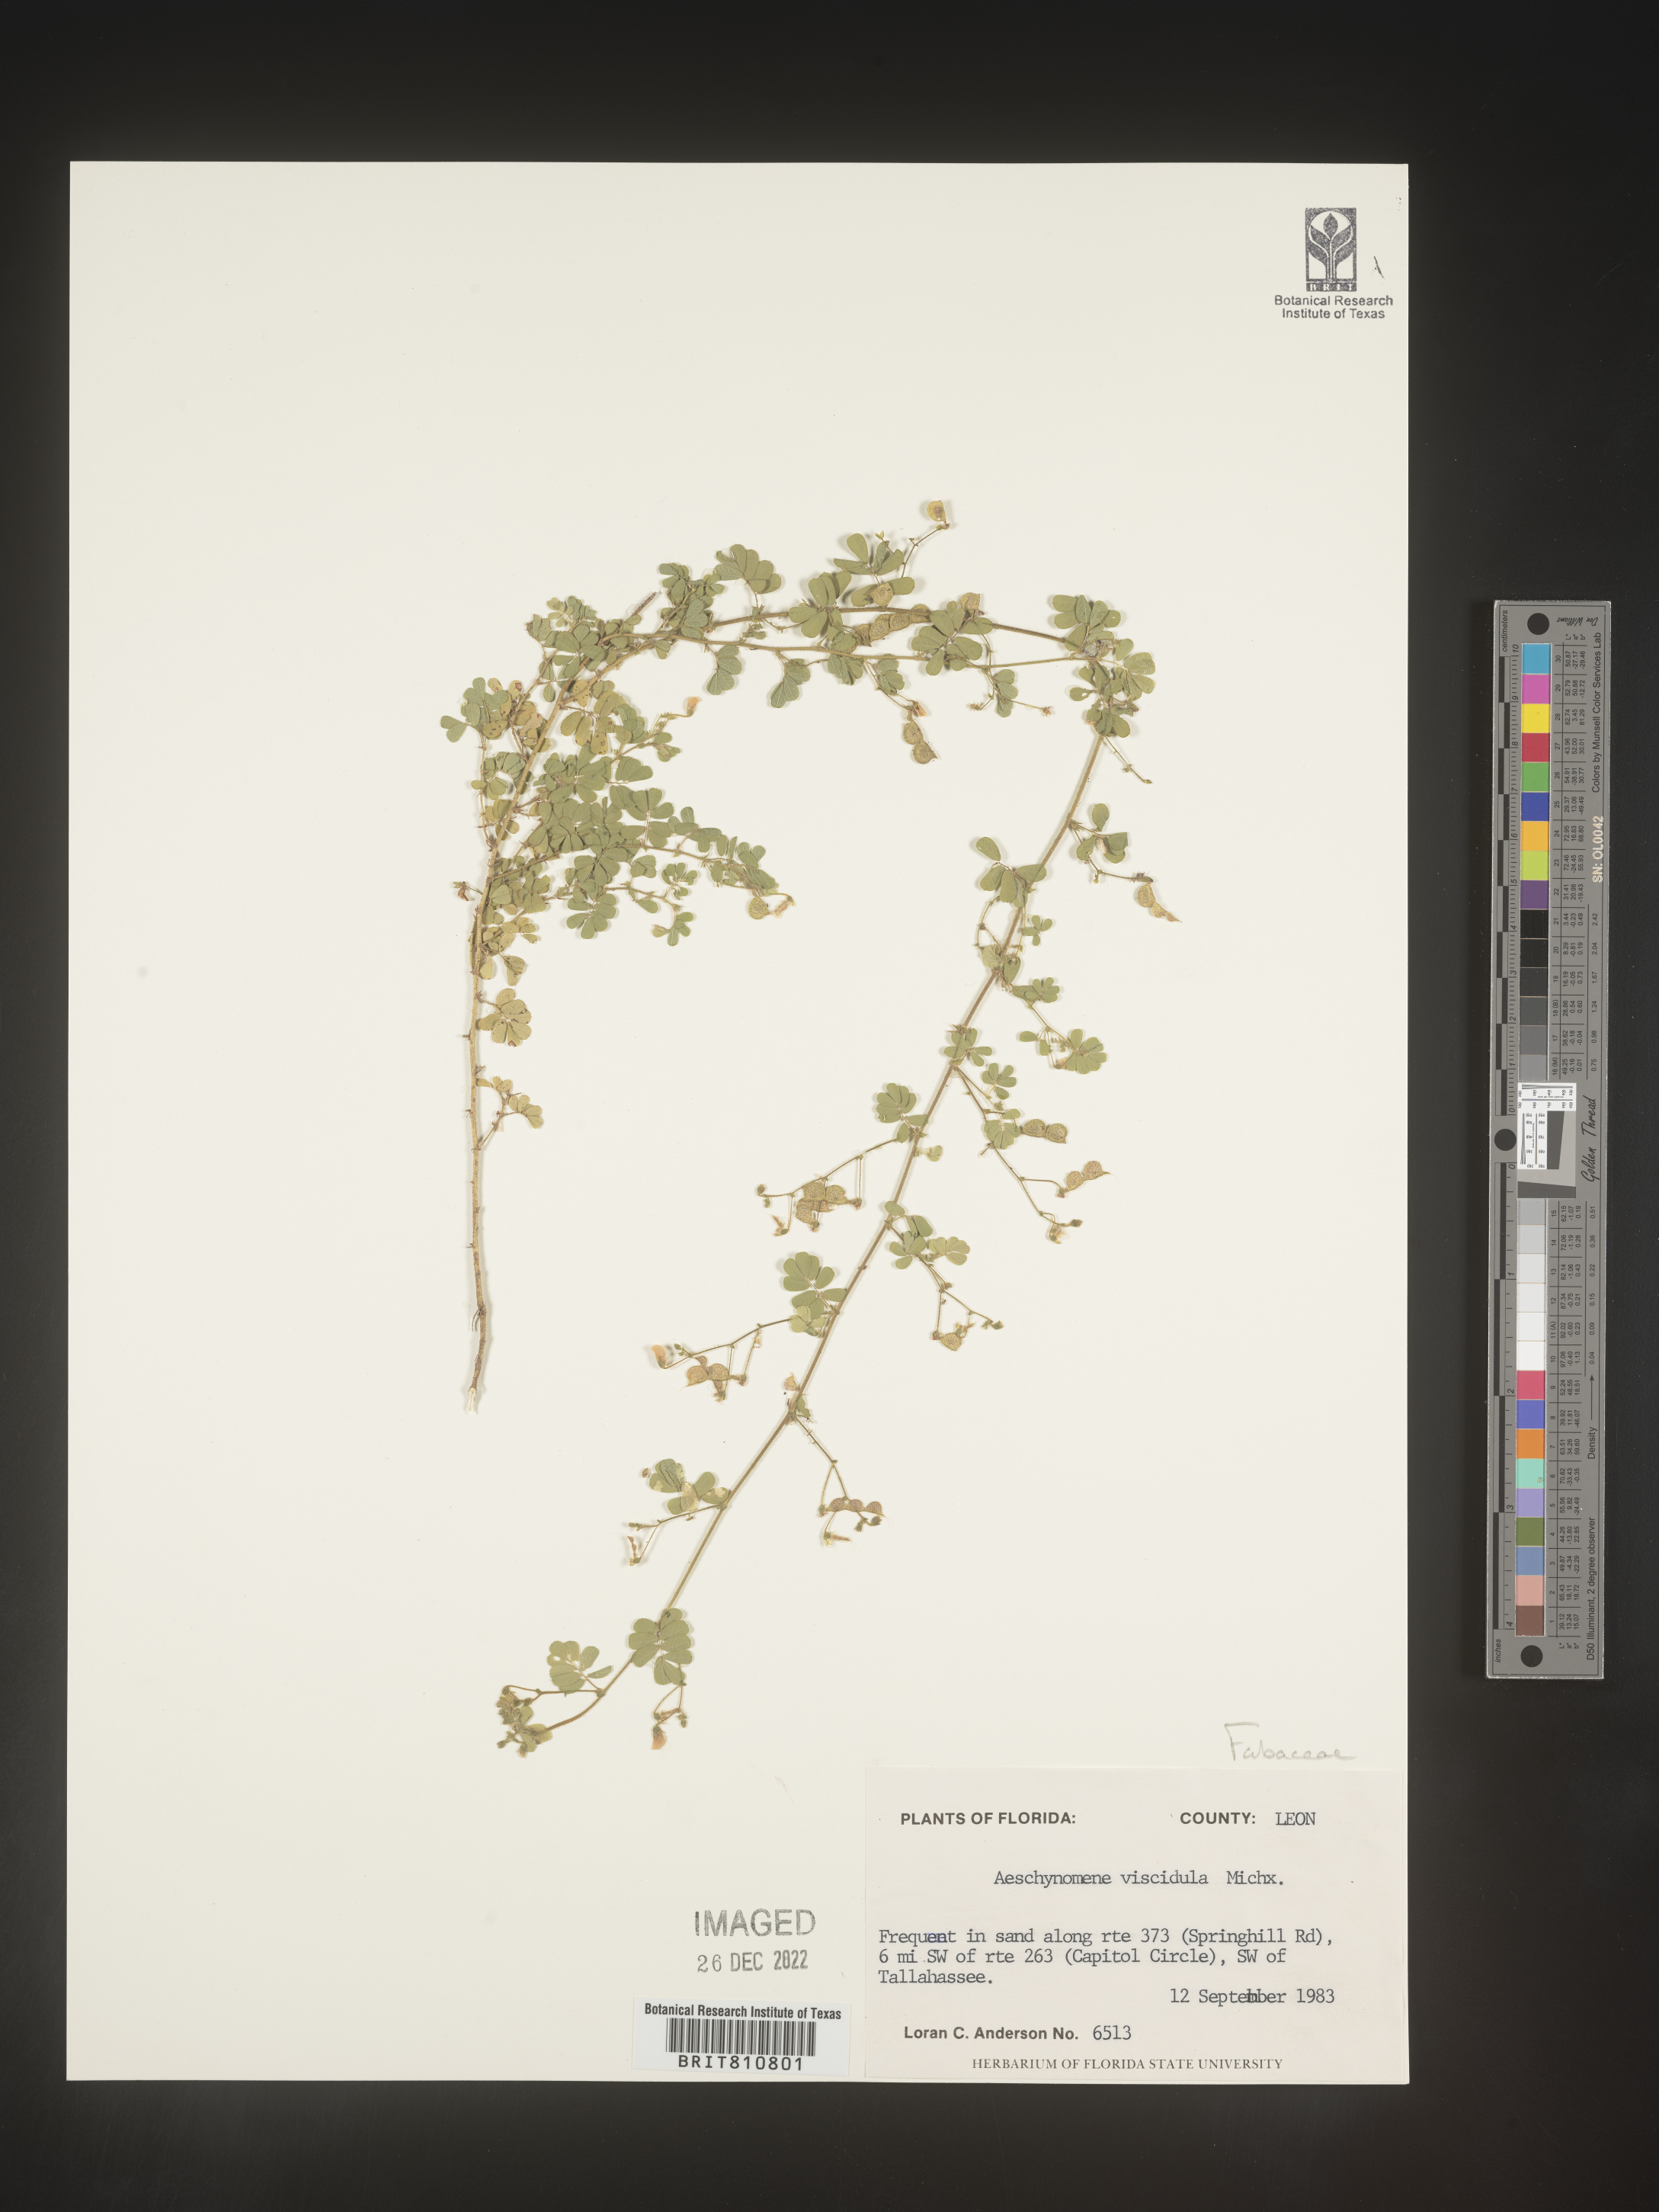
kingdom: Plantae
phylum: Tracheophyta
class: Magnoliopsida
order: Fabales
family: Fabaceae
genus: Aeschynomene
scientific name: Aeschynomene indica
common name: Indian jointvetch
